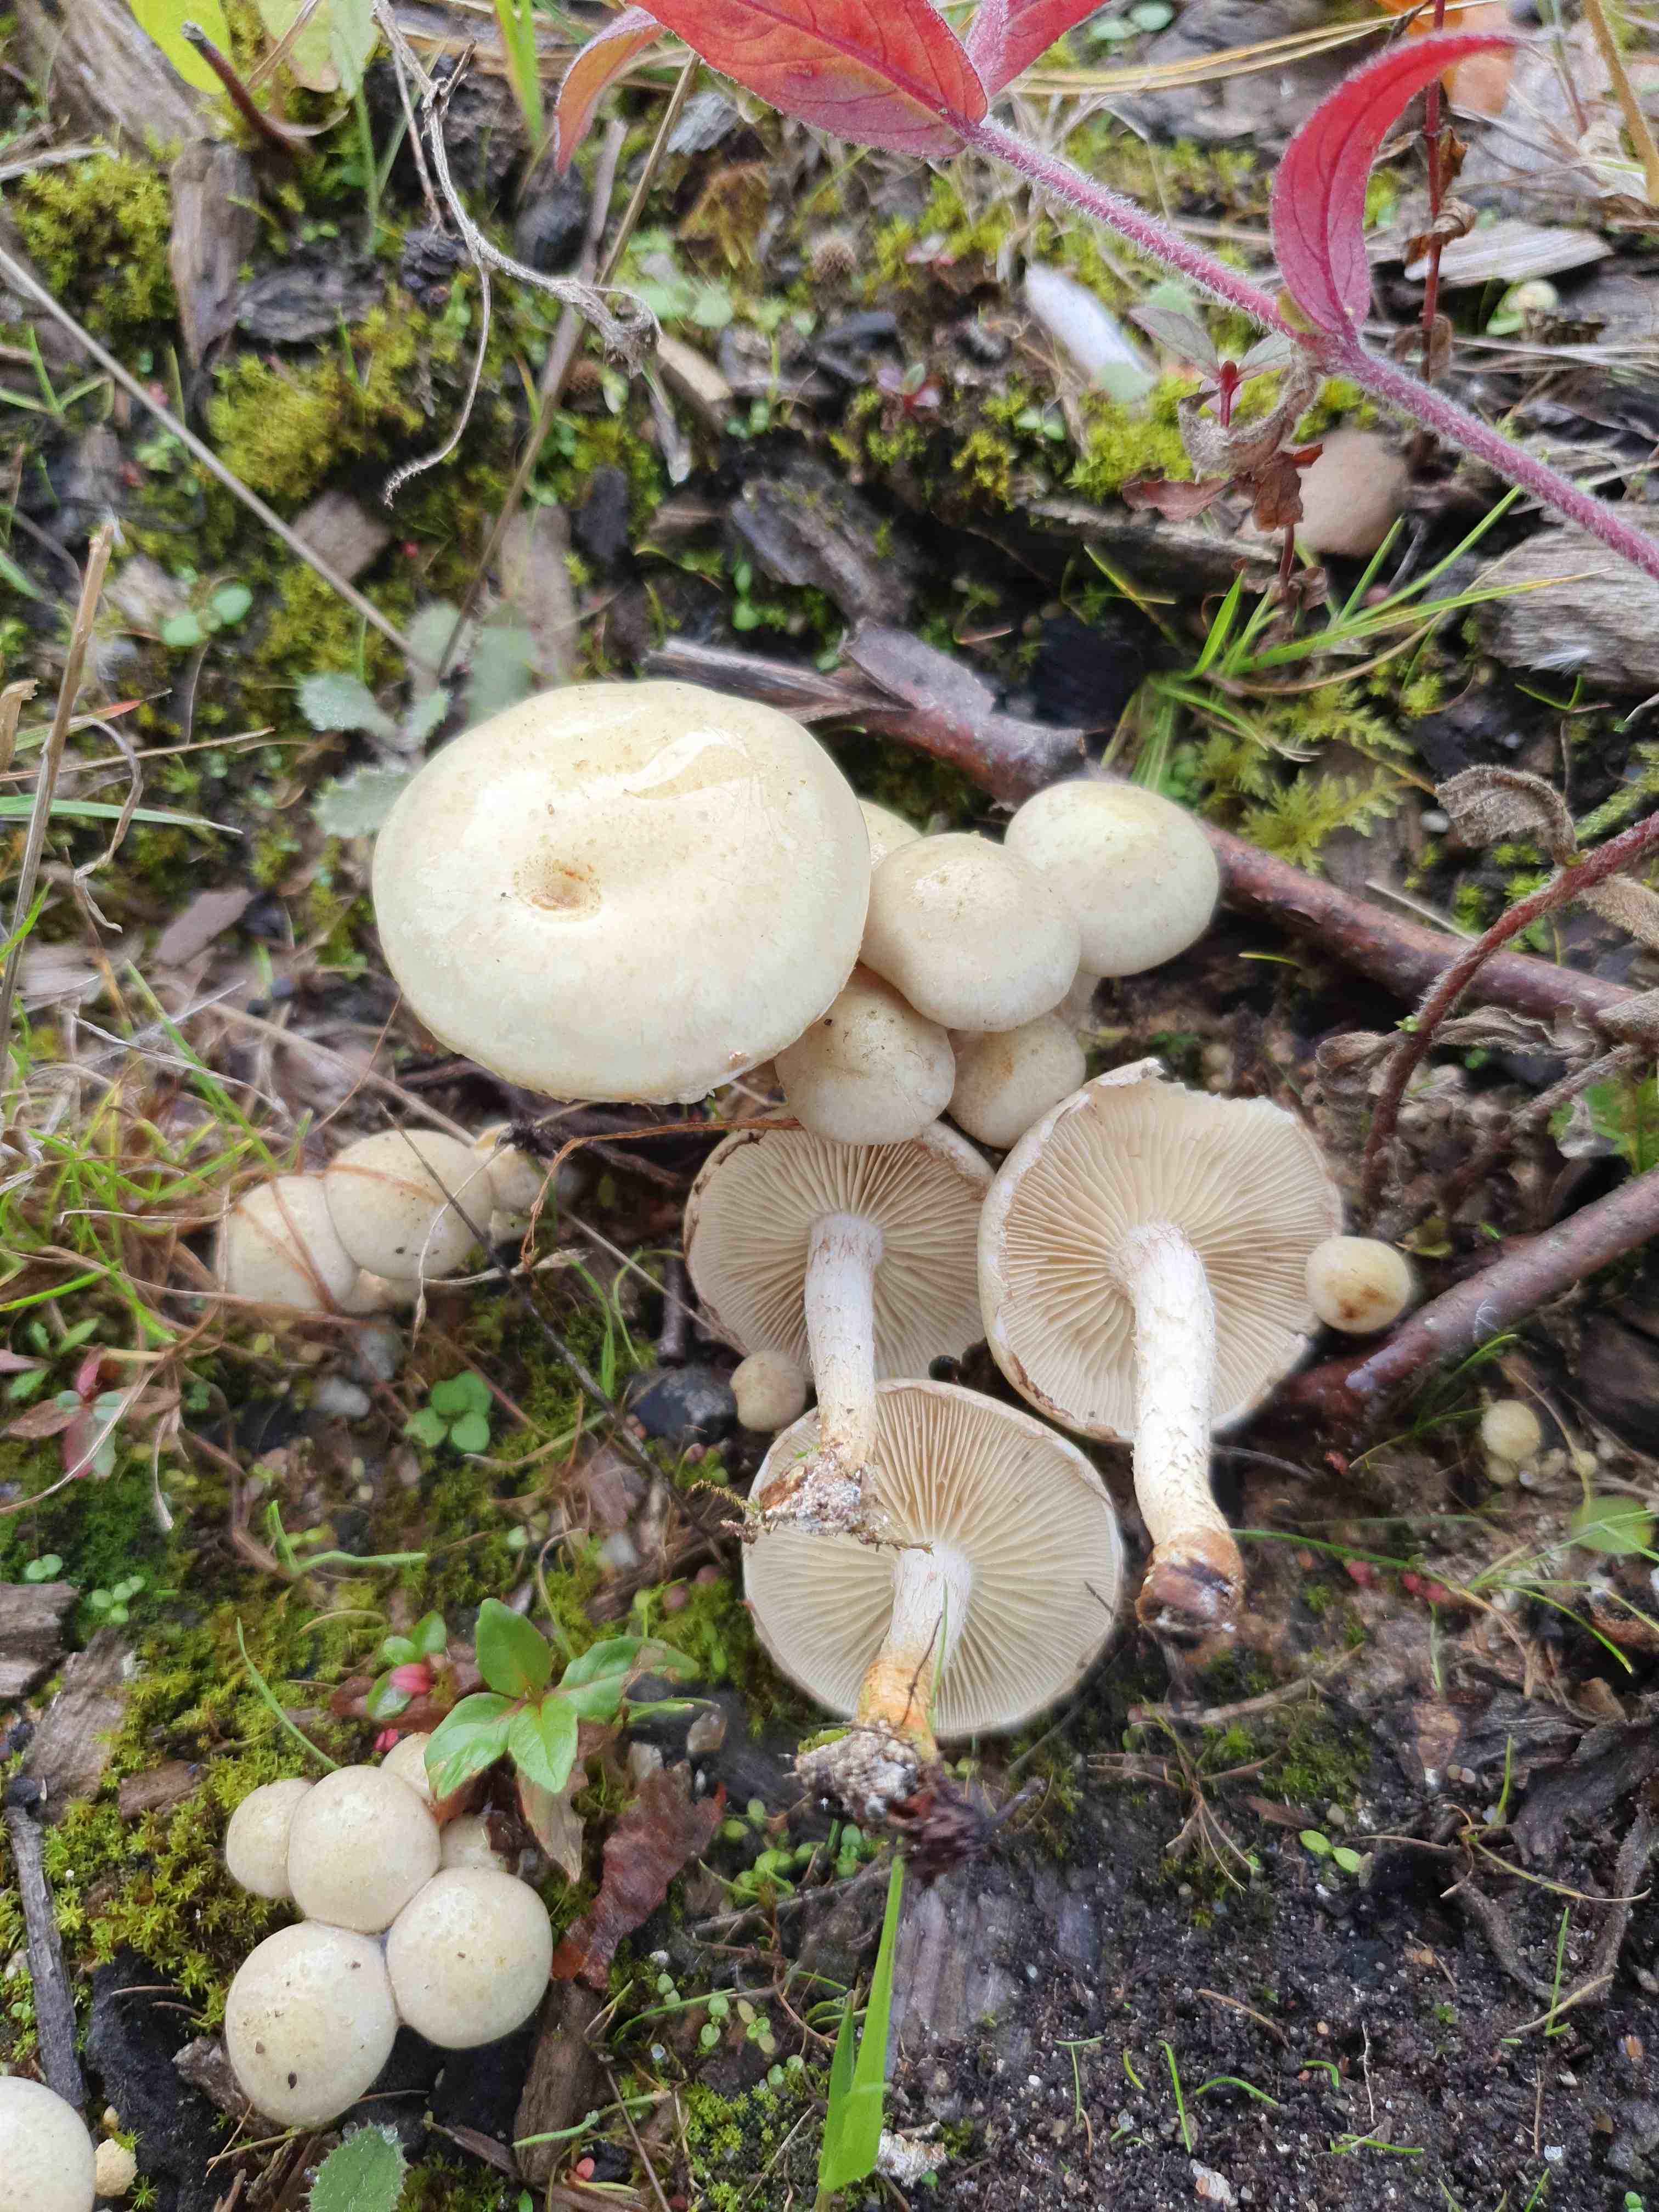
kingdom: Fungi
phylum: Basidiomycota
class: Agaricomycetes
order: Agaricales
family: Strophariaceae
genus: Pholiota
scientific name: Pholiota gummosa
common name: grøngul skælhat
